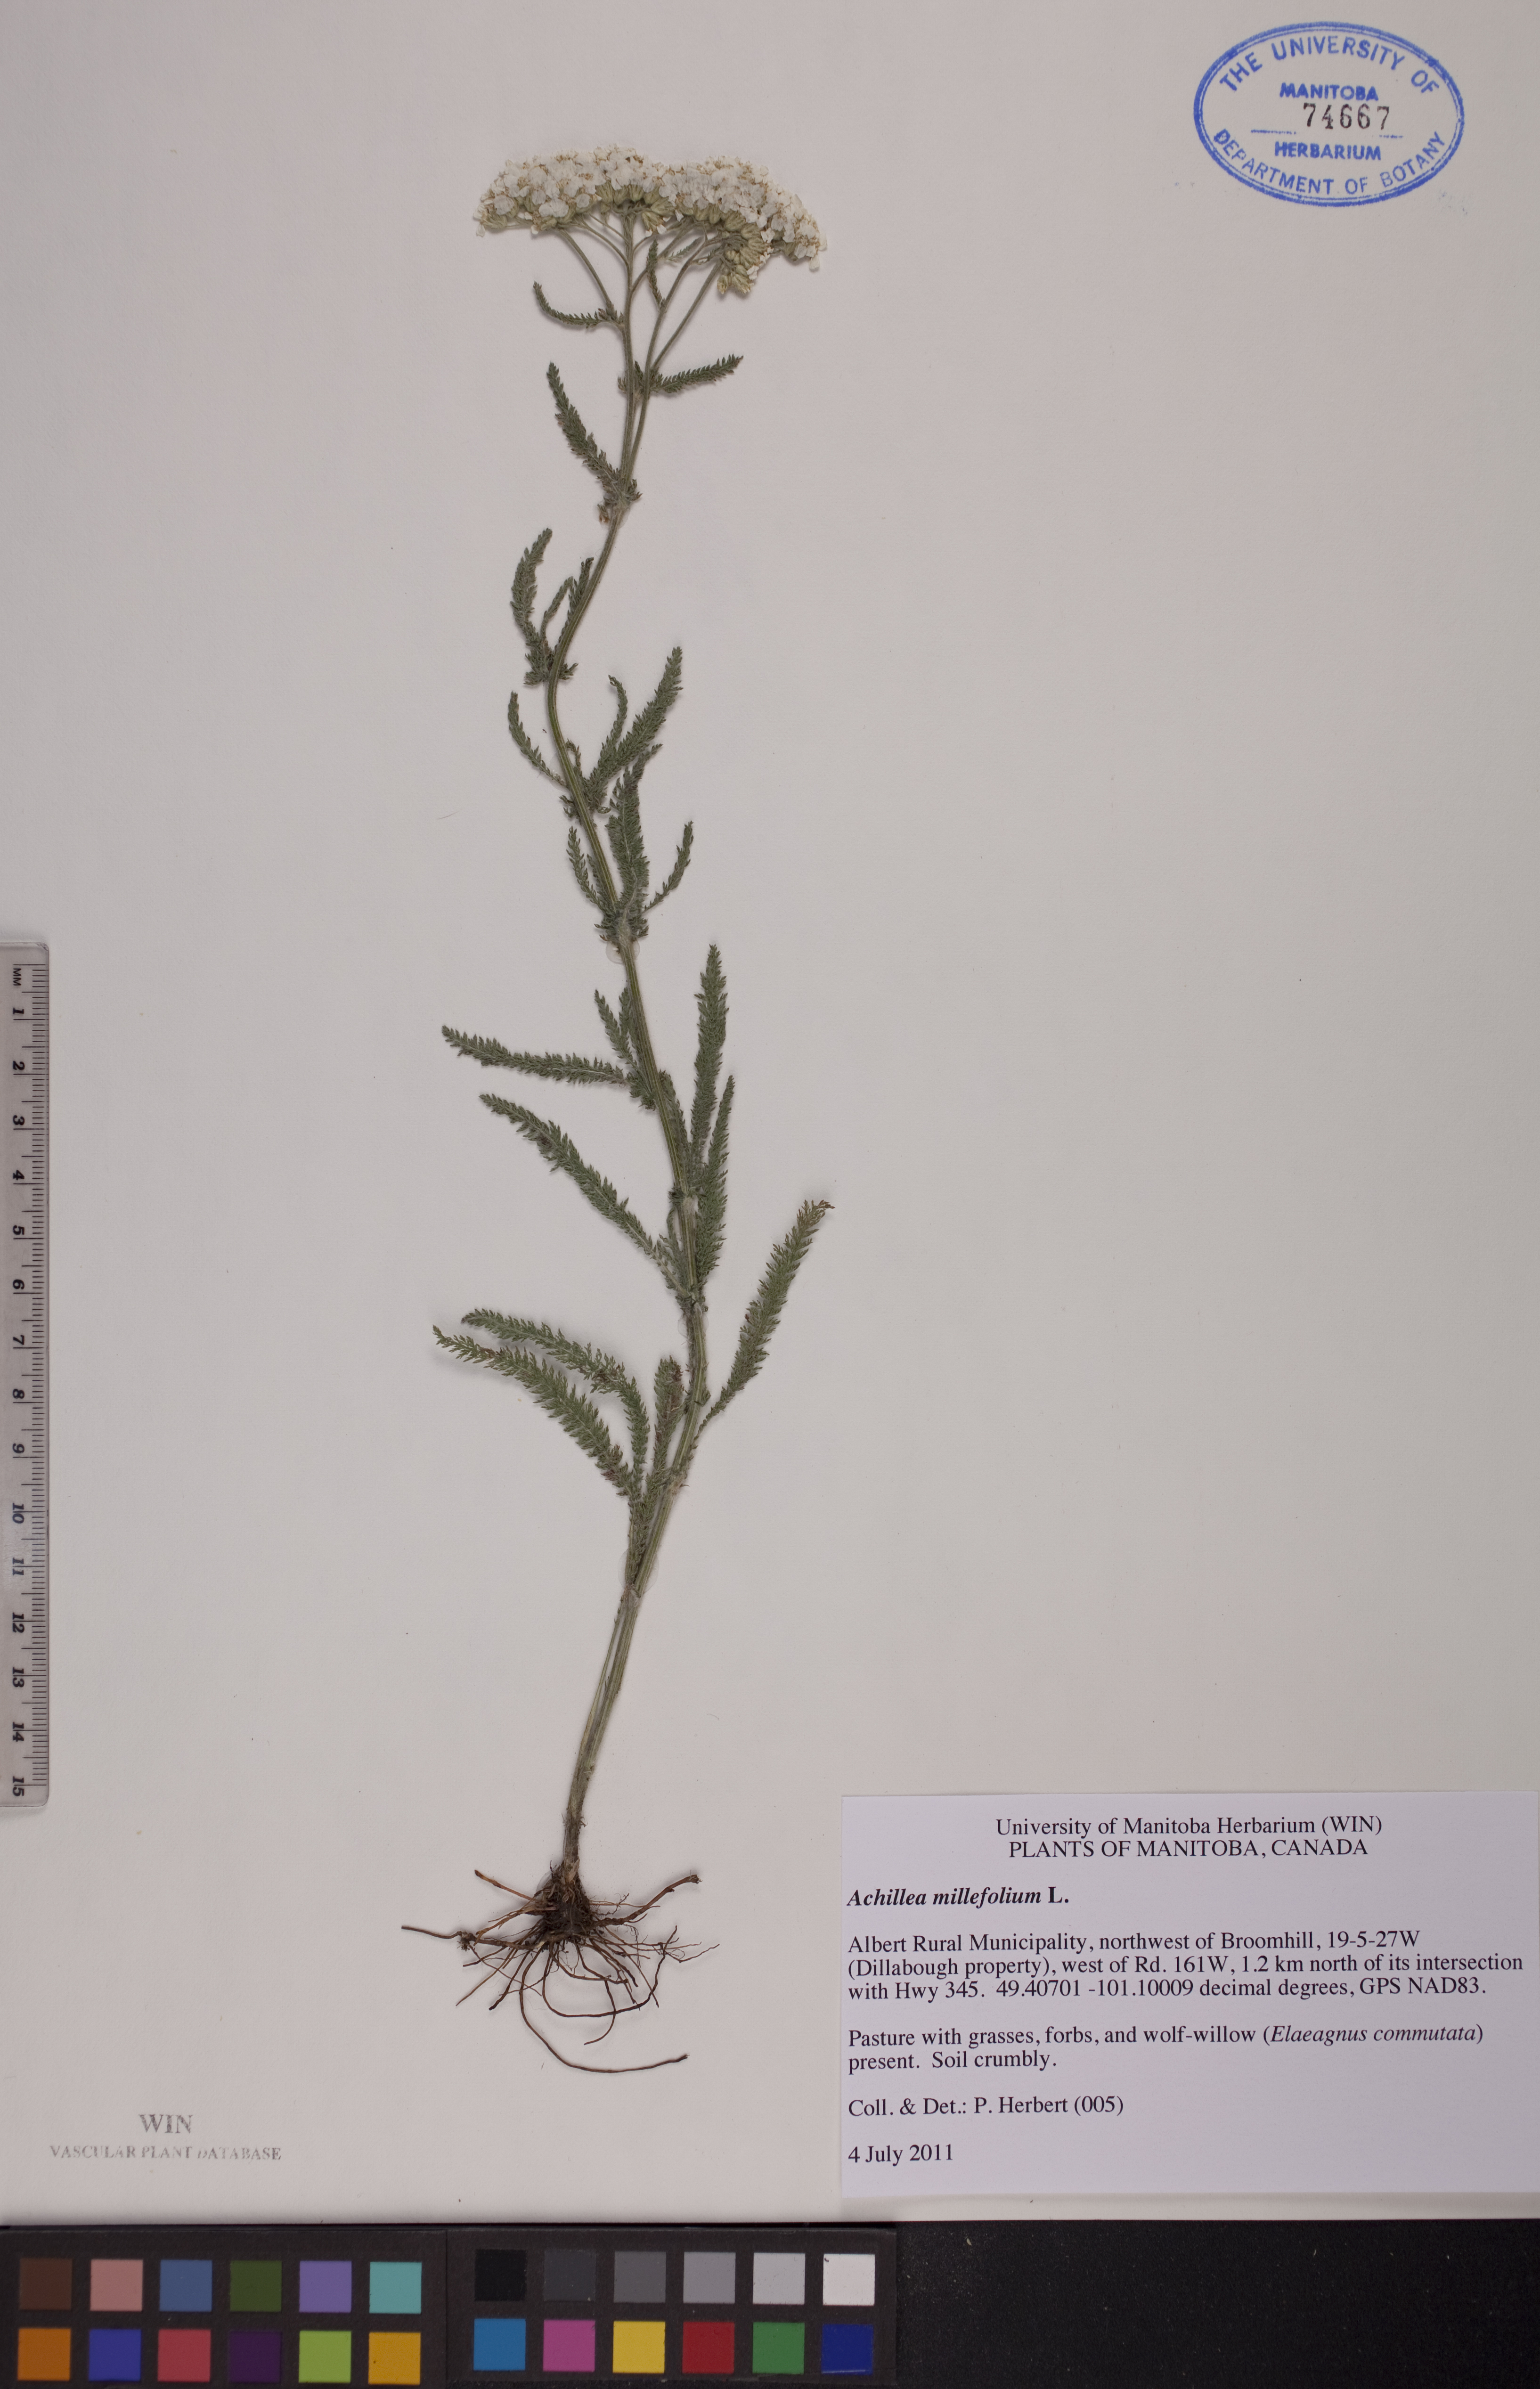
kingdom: Plantae
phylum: Tracheophyta
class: Magnoliopsida
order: Asterales
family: Asteraceae
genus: Achillea
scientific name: Achillea millefolium
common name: Yarrow
